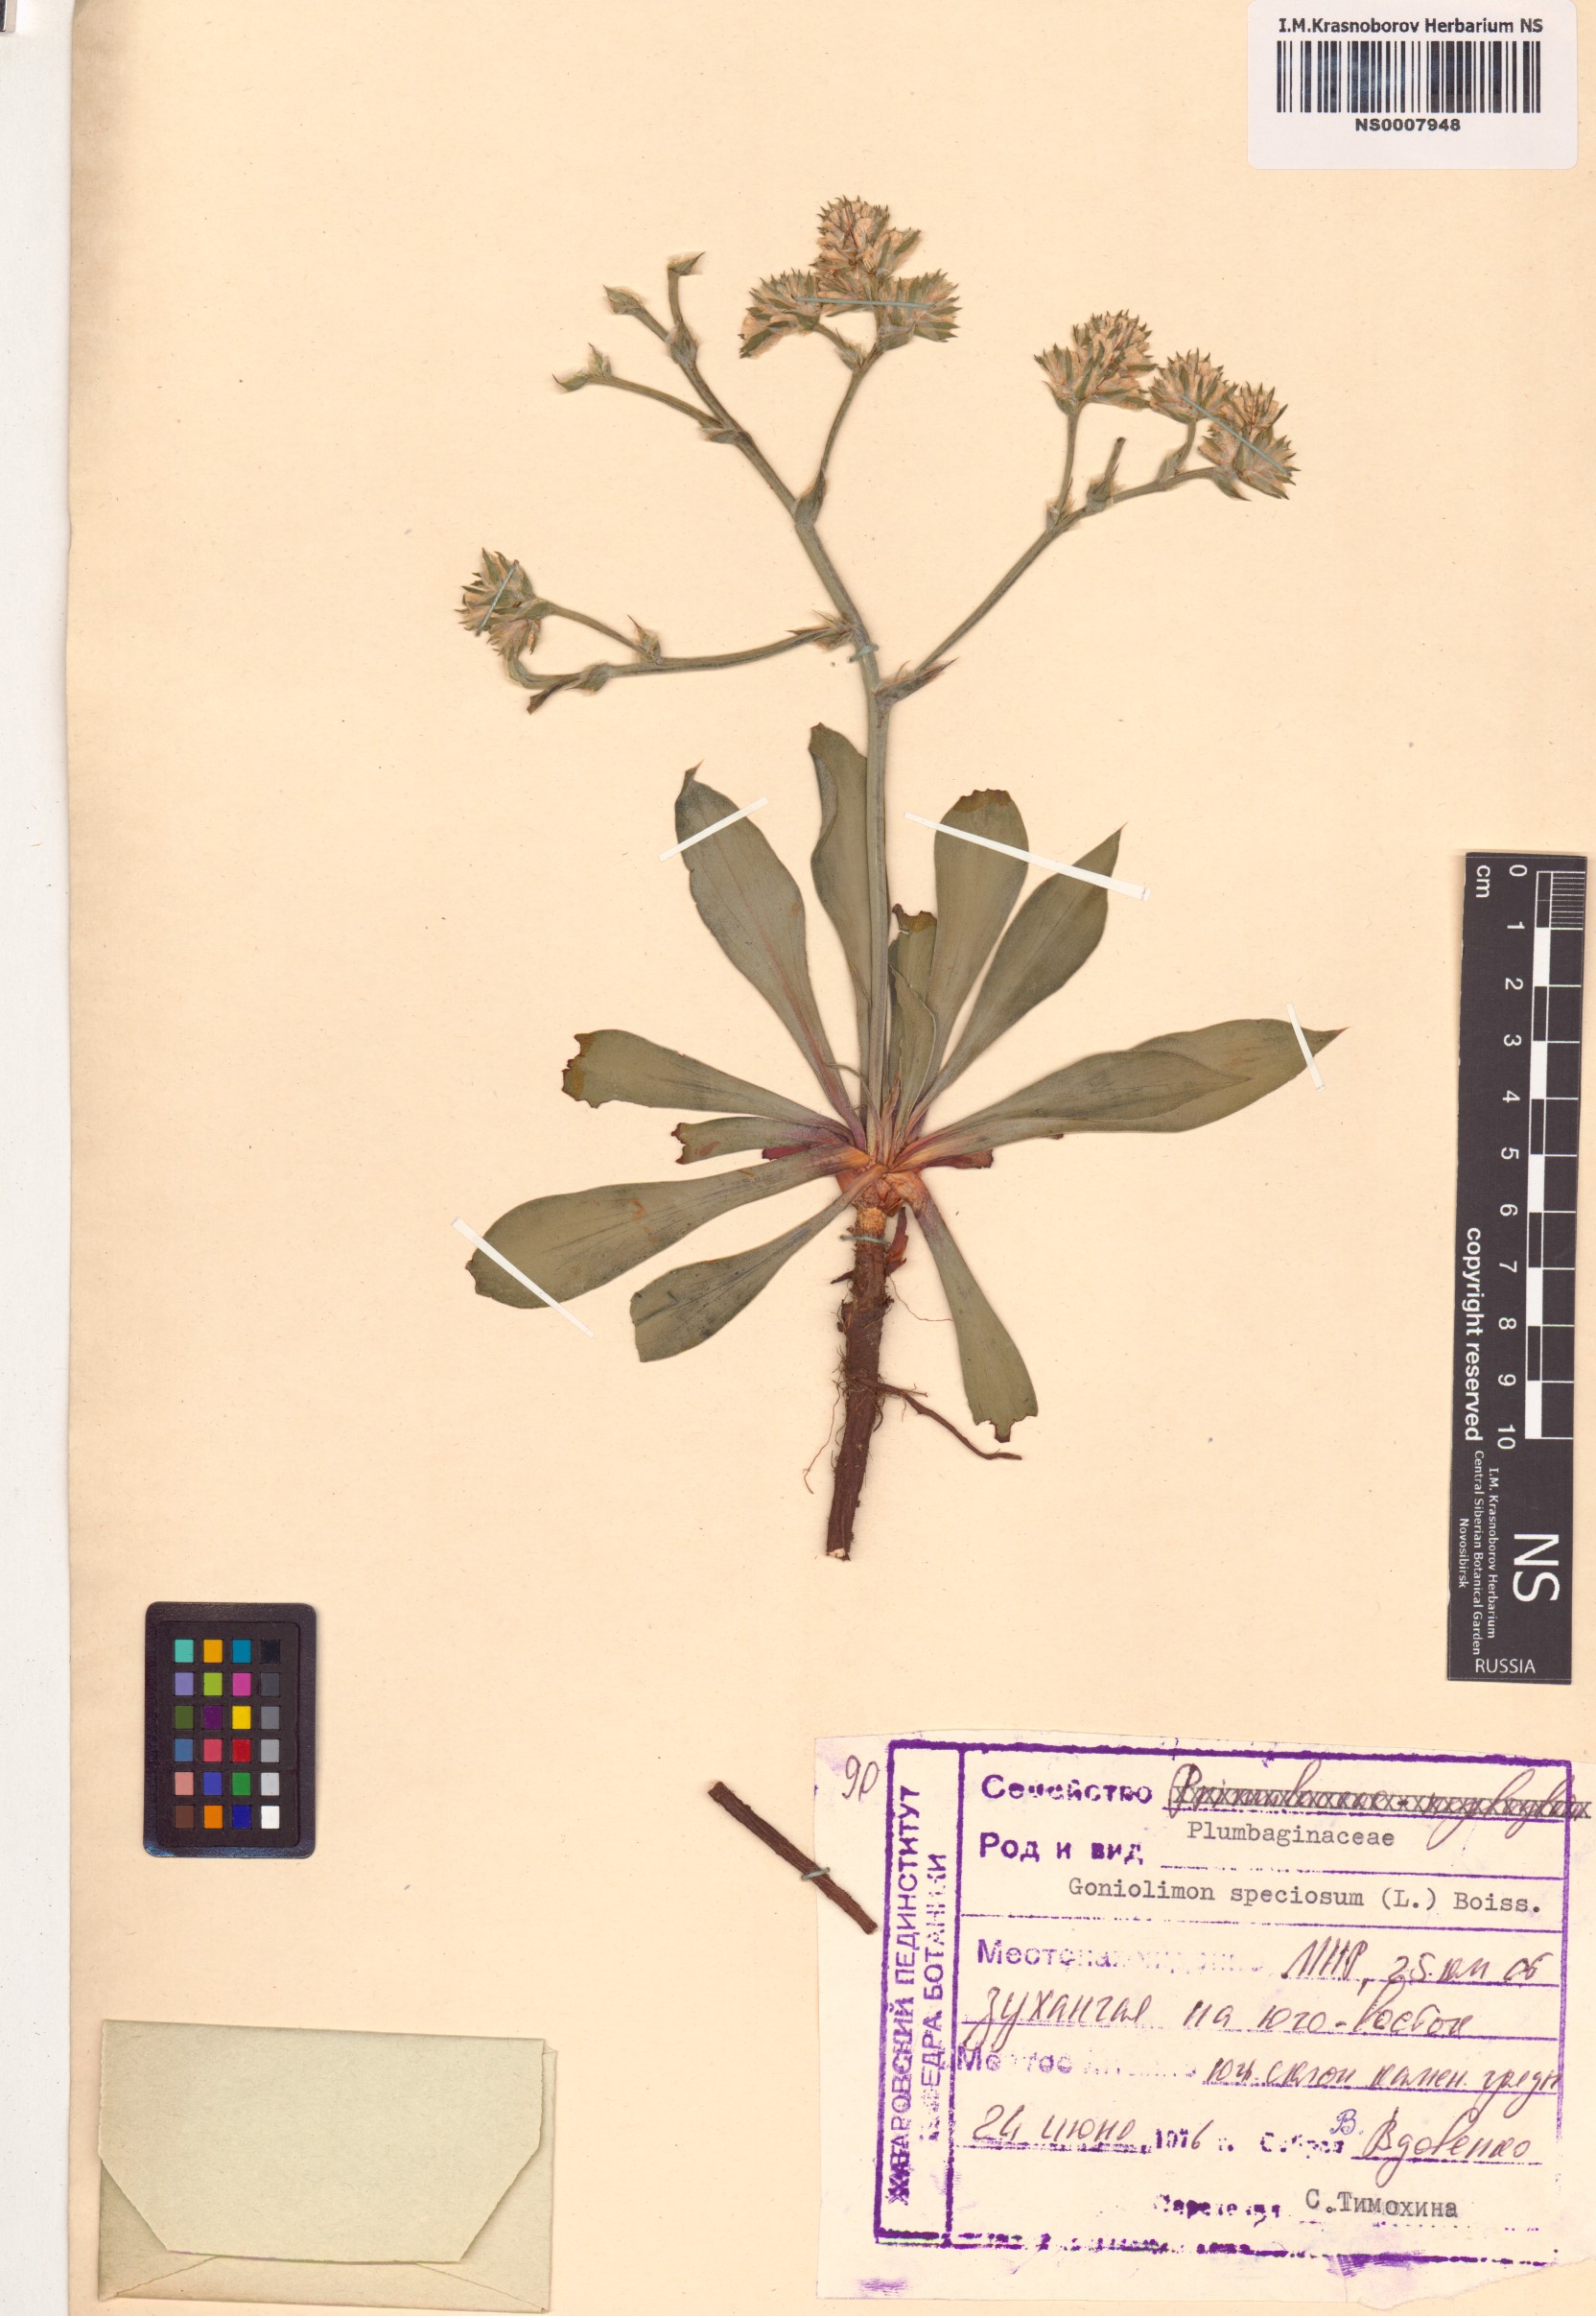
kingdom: Plantae
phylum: Tracheophyta
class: Magnoliopsida
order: Caryophyllales
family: Plumbaginaceae
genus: Goniolimon
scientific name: Goniolimon speciosum
